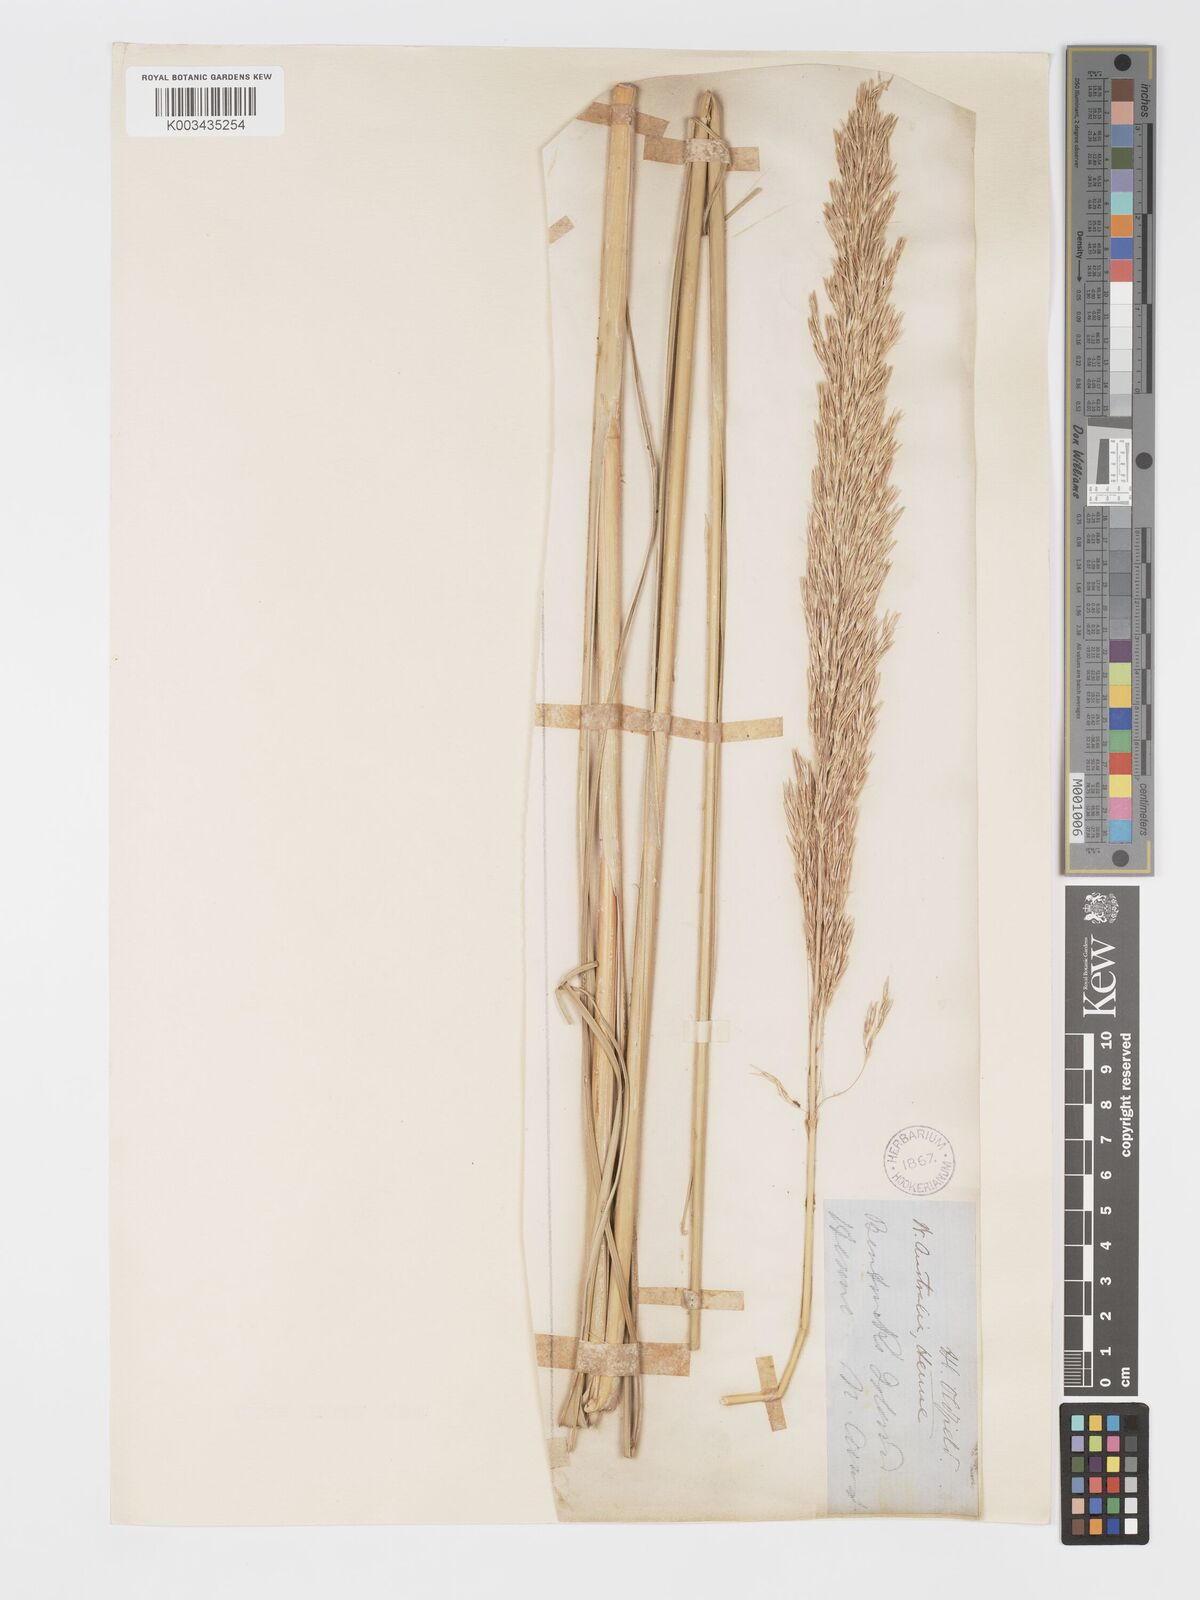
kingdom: Plantae
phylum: Tracheophyta
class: Liliopsida
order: Poales
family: Poaceae
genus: Chrysopogon
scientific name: Chrysopogon elongatus
